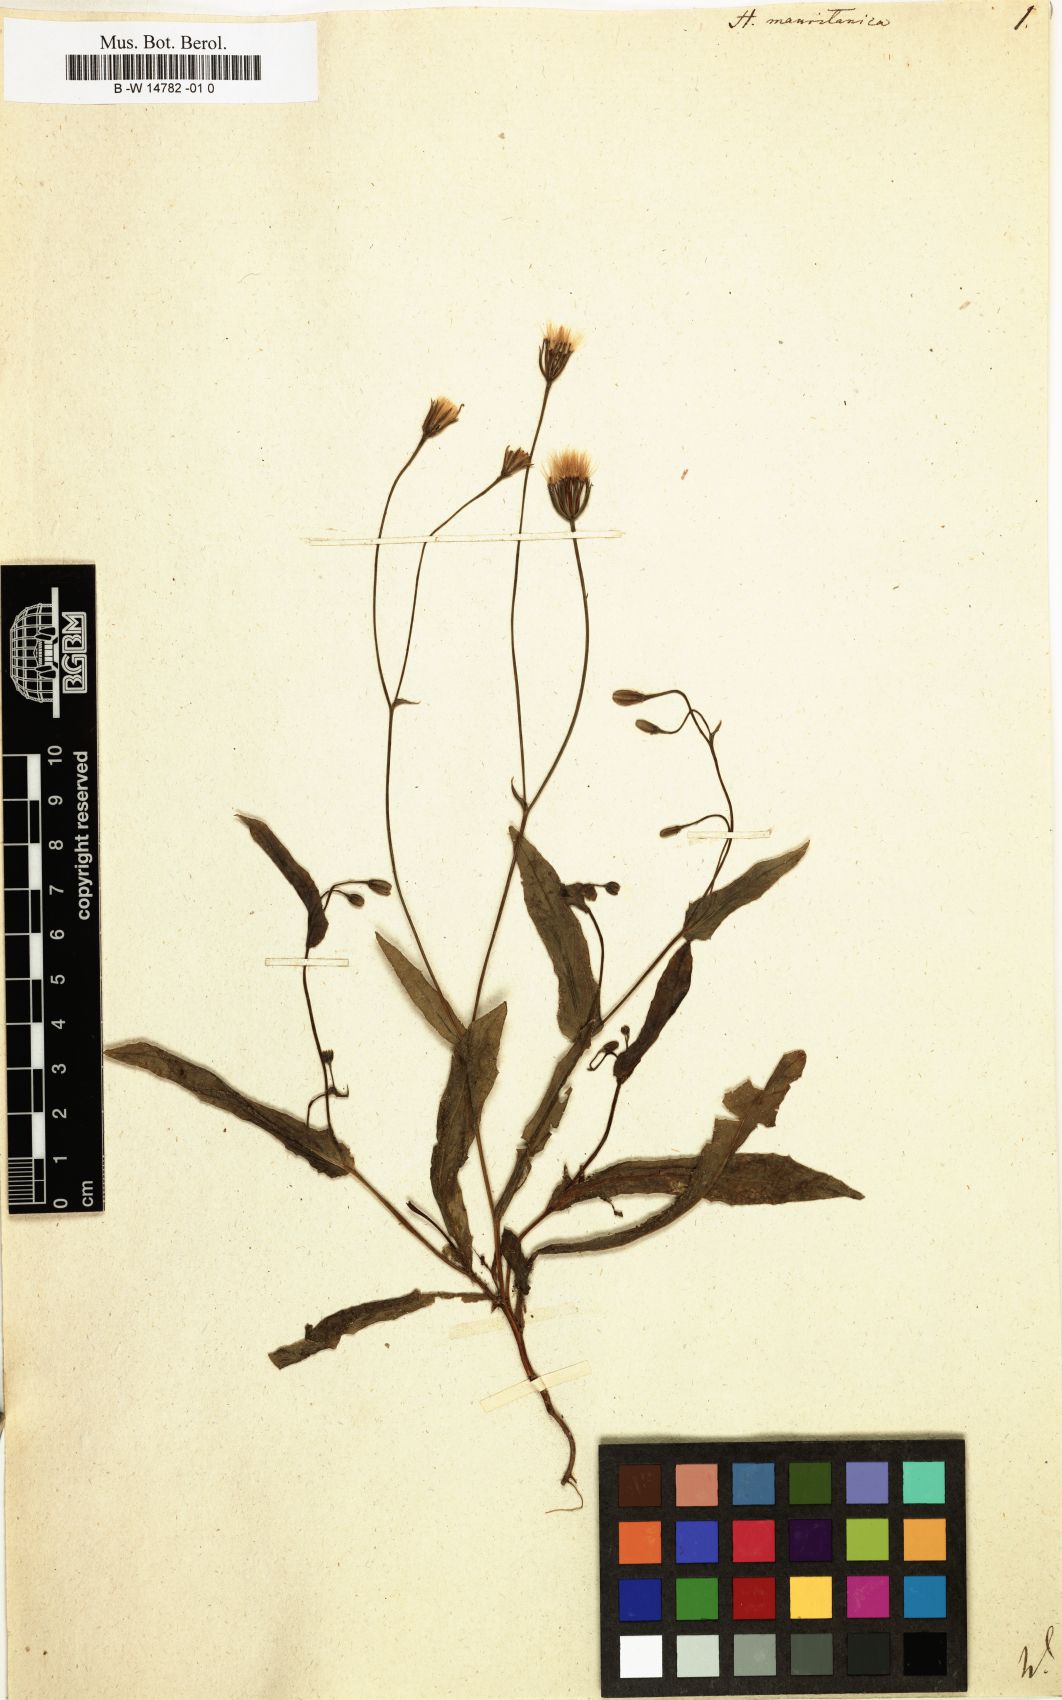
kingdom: Plantae
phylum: Tracheophyta
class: Magnoliopsida
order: Asterales
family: Asteraceae
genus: Hedypnois
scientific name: Hedypnois rhagadioloides
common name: Cretan weed
